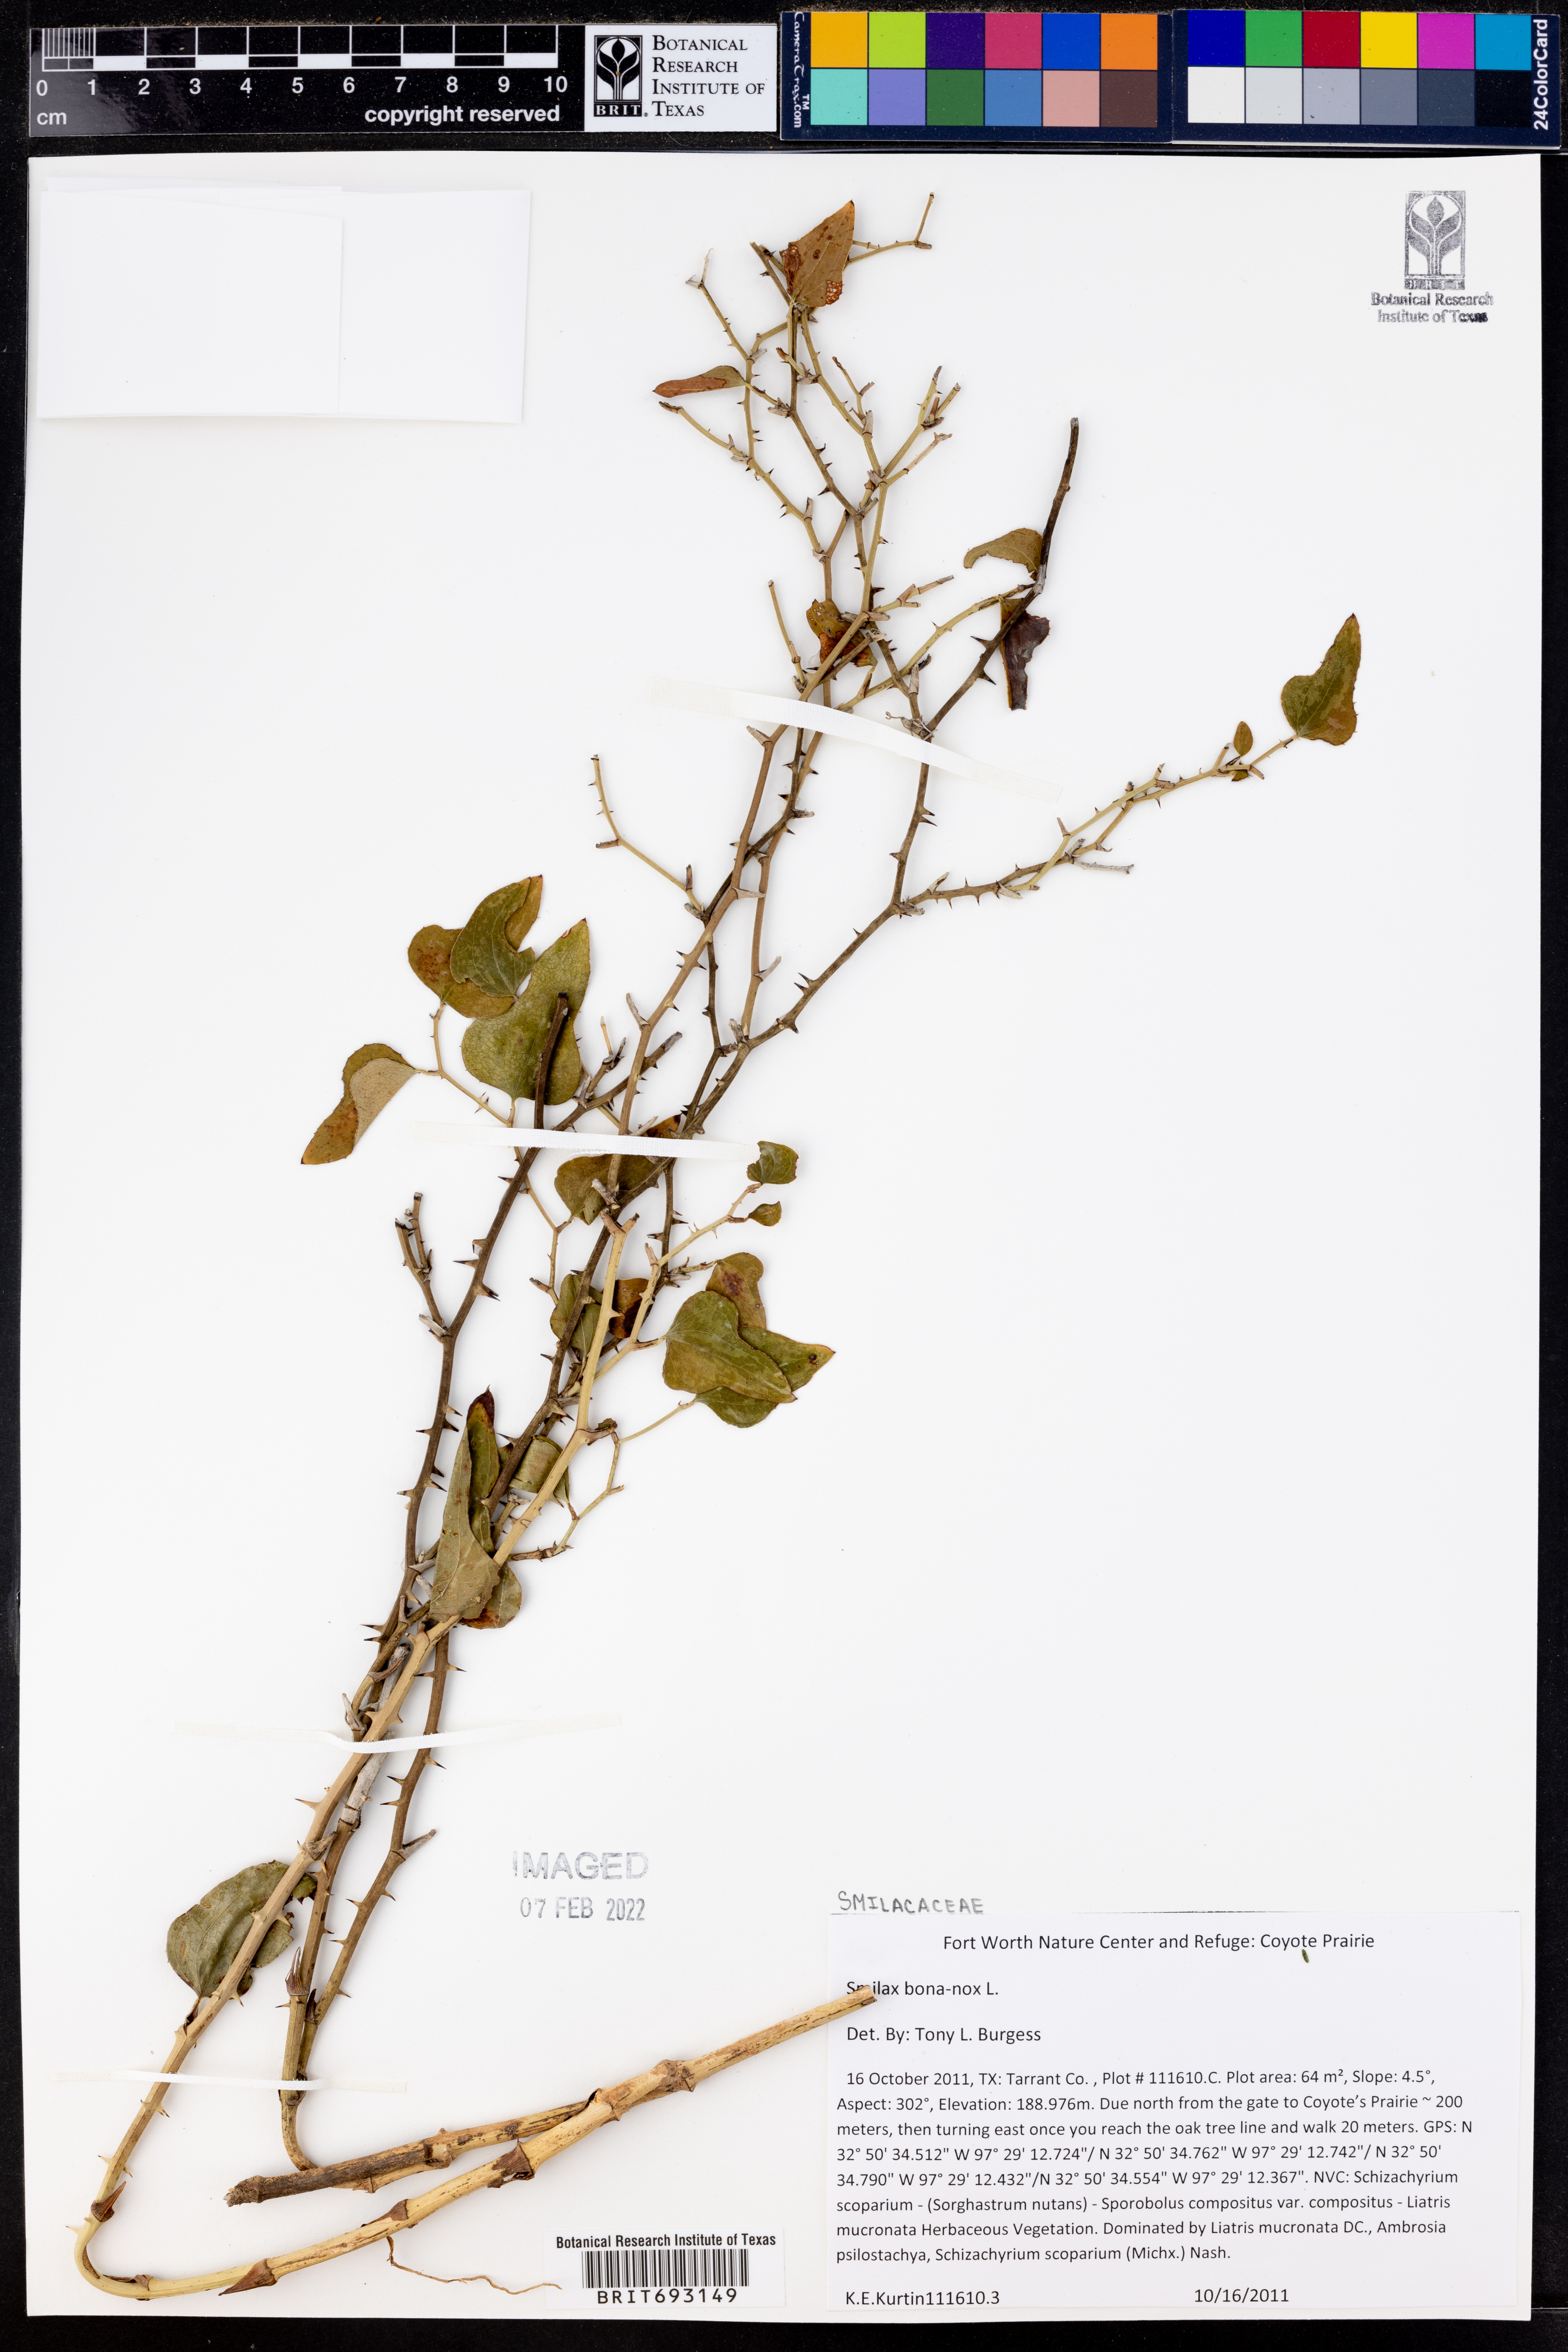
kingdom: Plantae
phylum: Tracheophyta
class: Liliopsida
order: Liliales
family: Smilacaceae
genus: Smilax
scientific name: Smilax bona-nox
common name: Catbrier
